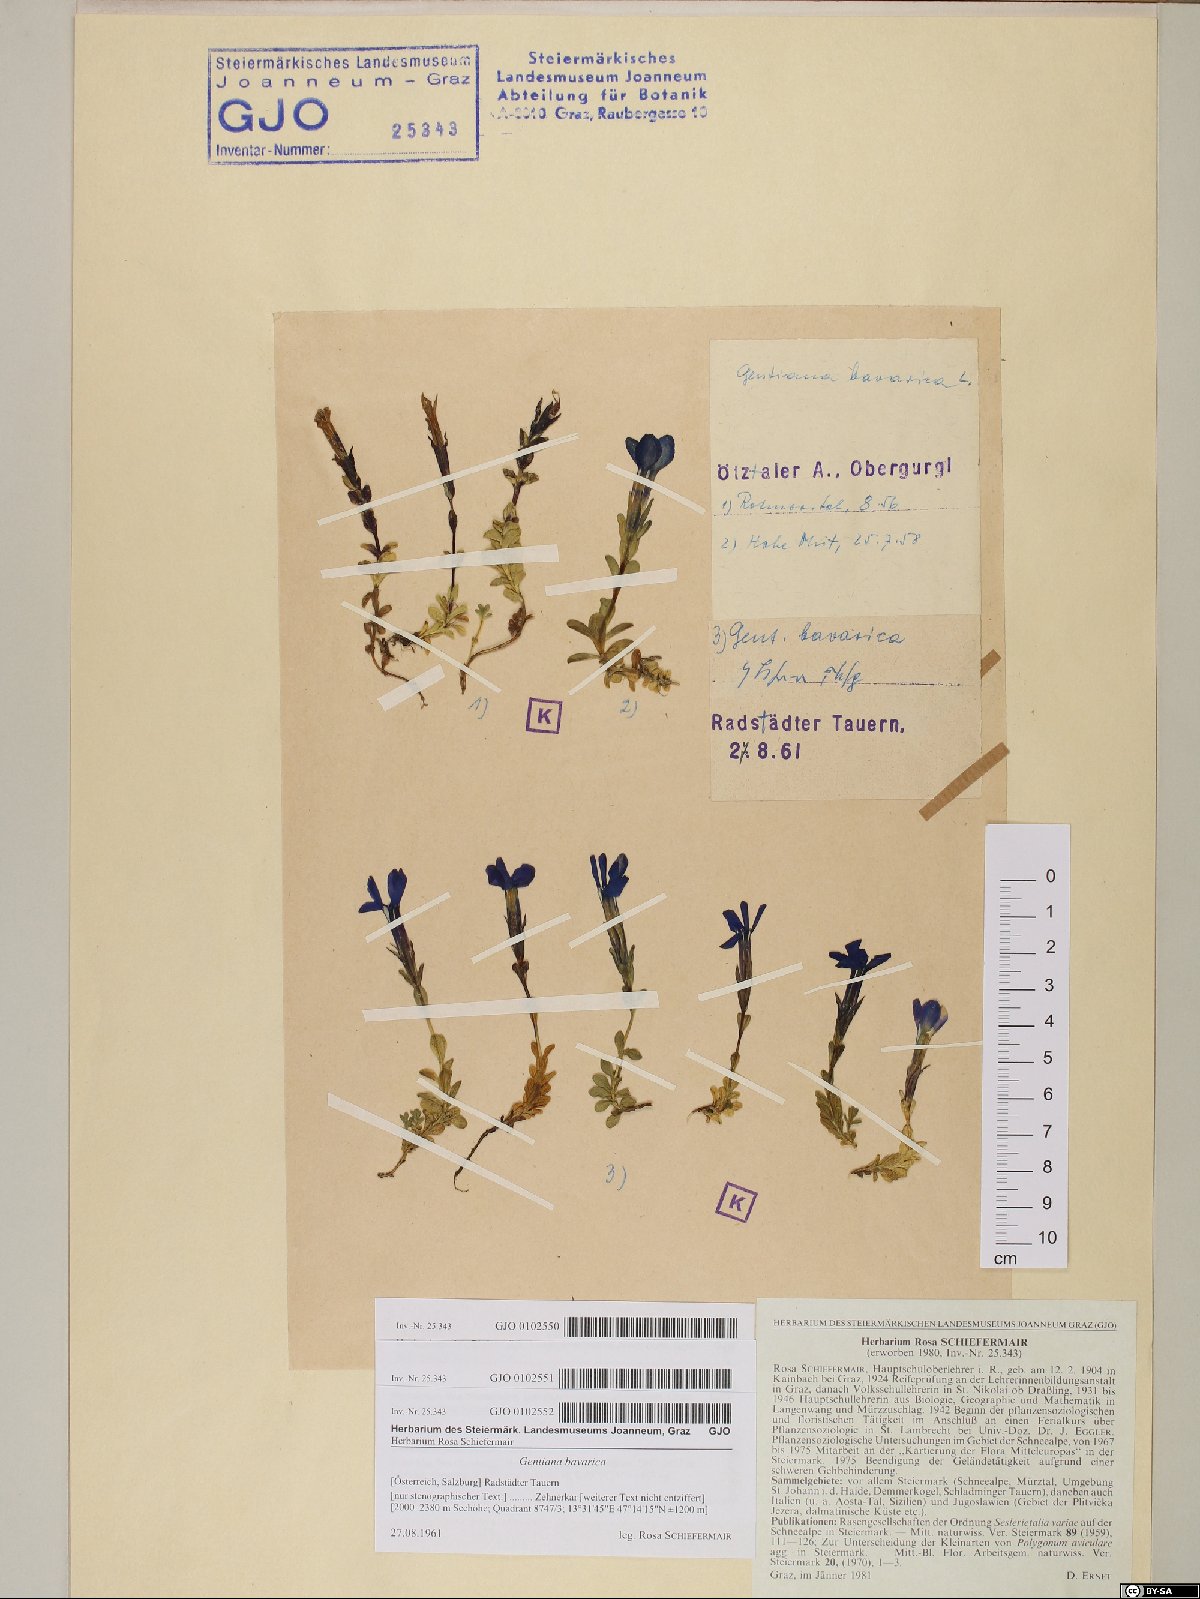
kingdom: Plantae
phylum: Tracheophyta
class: Magnoliopsida
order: Gentianales
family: Gentianaceae
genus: Gentiana
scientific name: Gentiana bavarica
